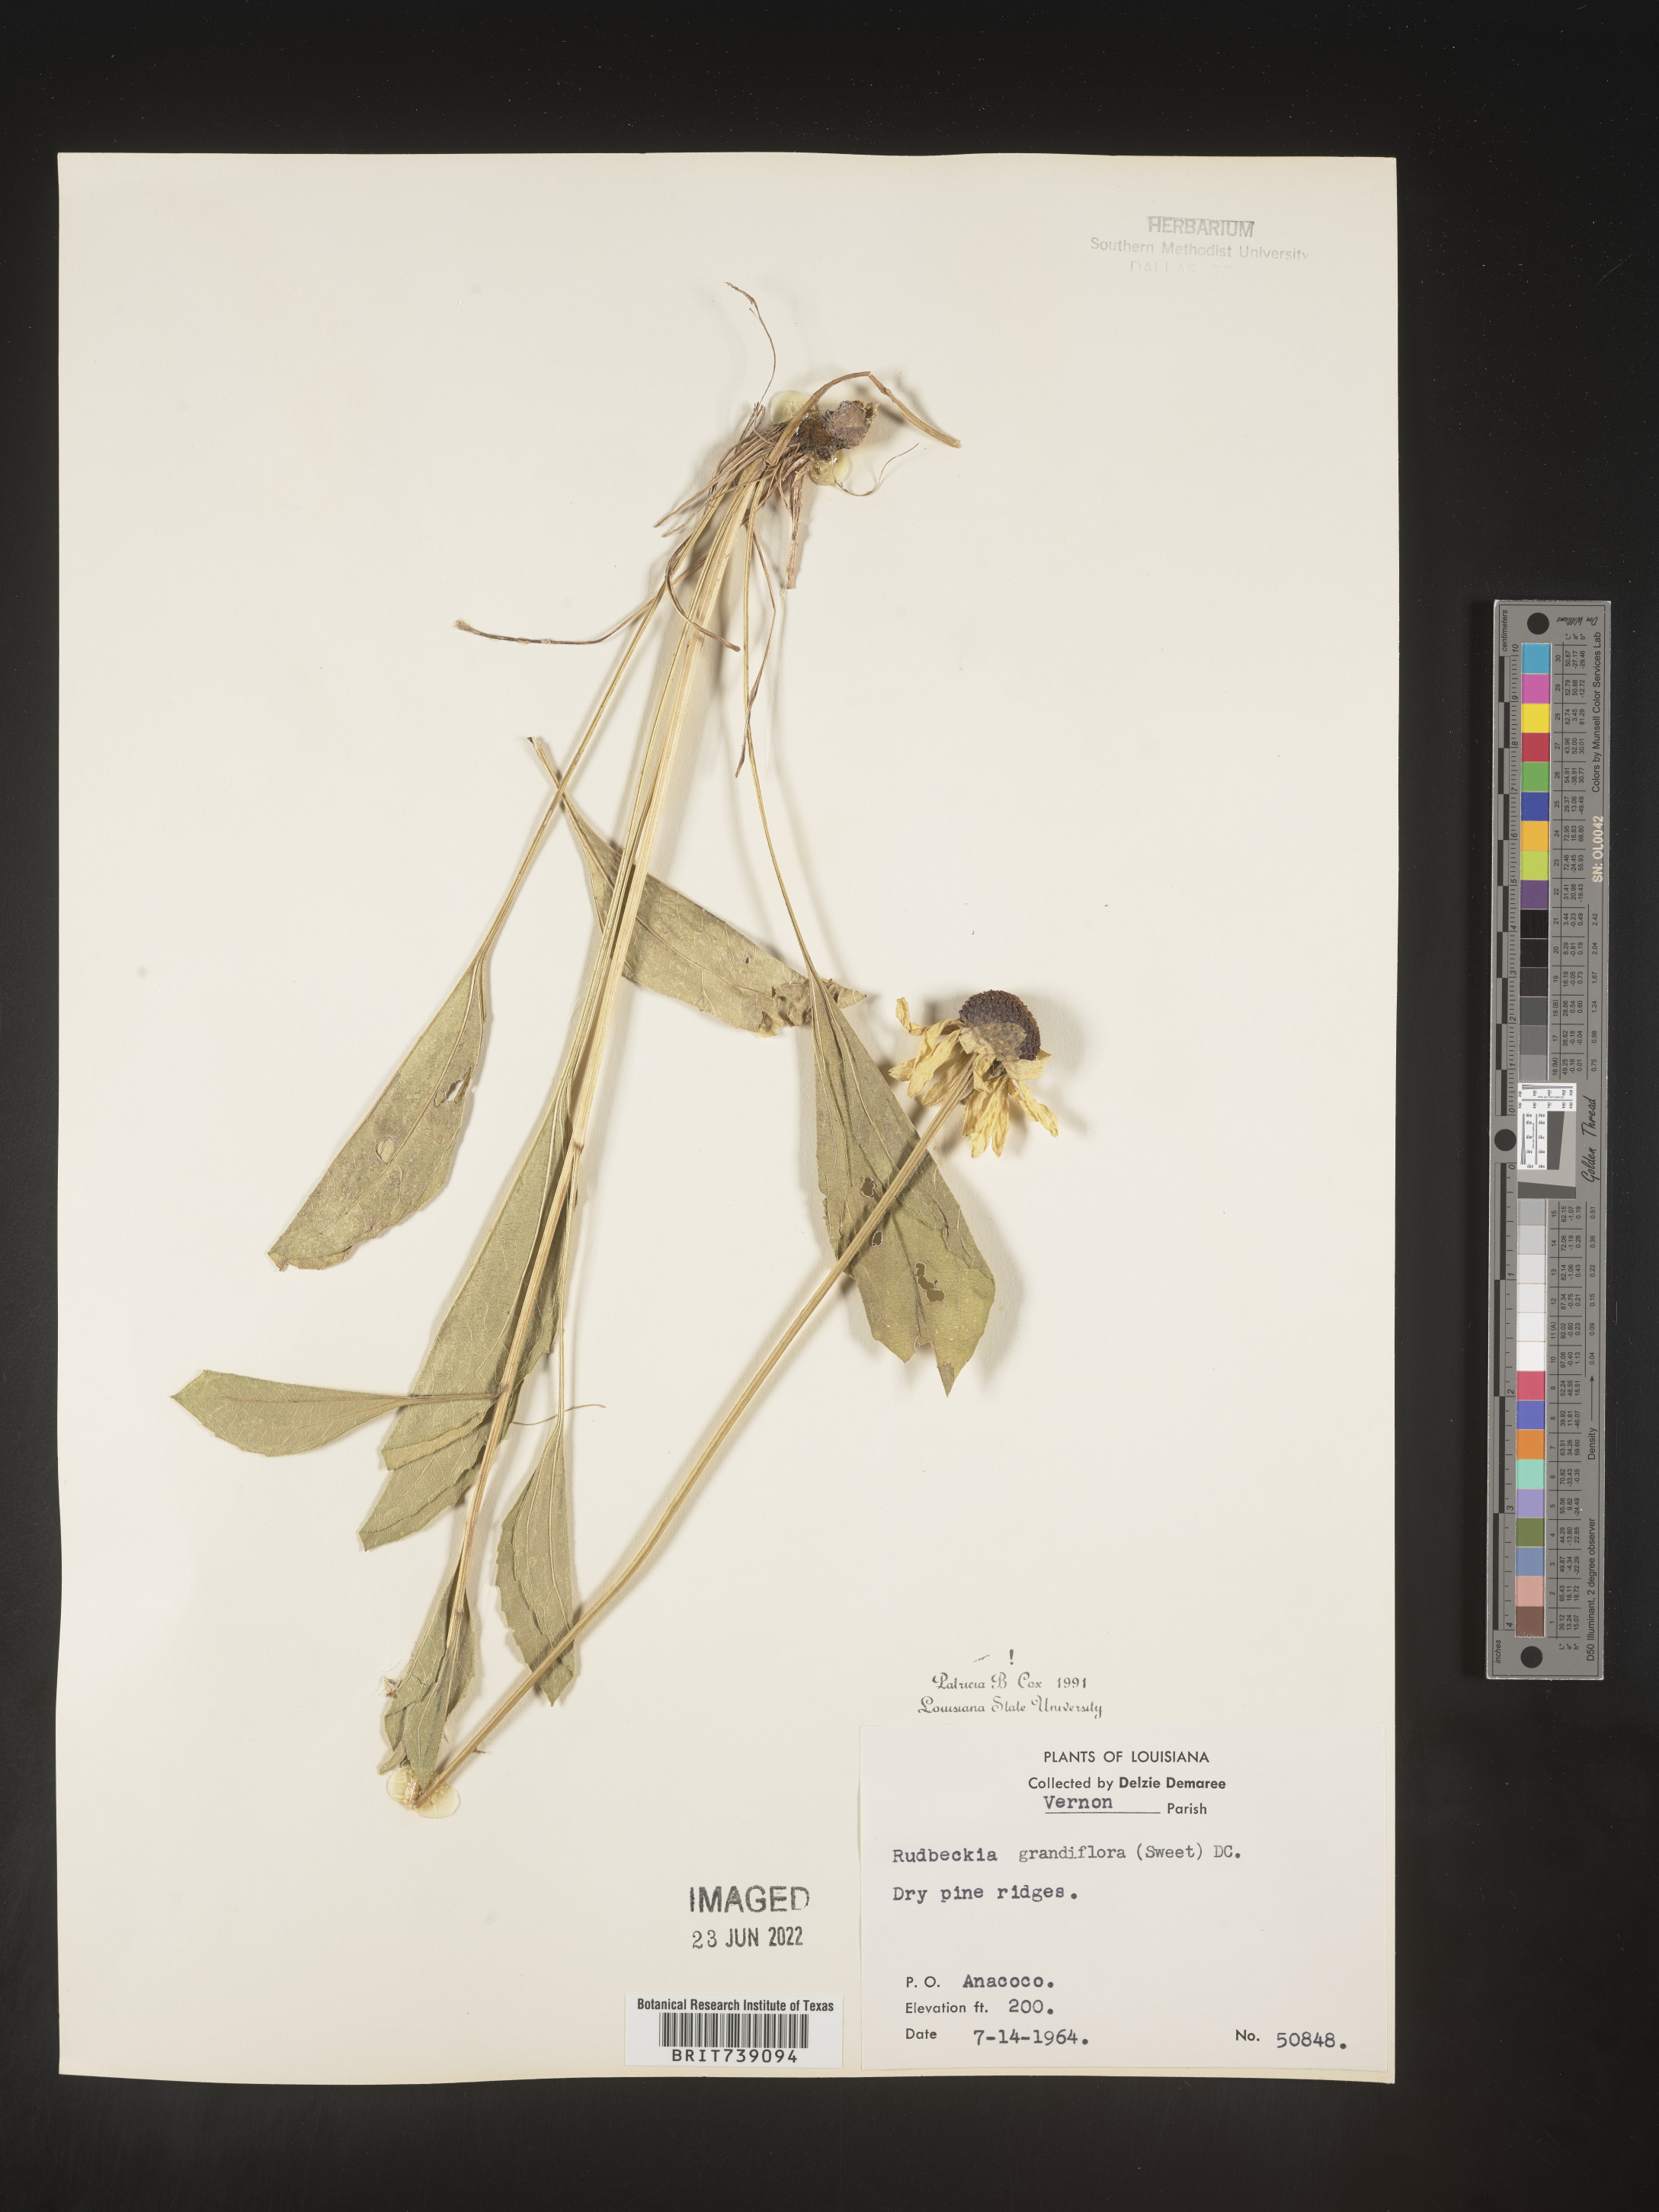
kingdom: Plantae
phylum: Tracheophyta
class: Magnoliopsida
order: Asterales
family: Asteraceae
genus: Rudbeckia
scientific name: Rudbeckia grandiflora
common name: Large-flowered coneflower
